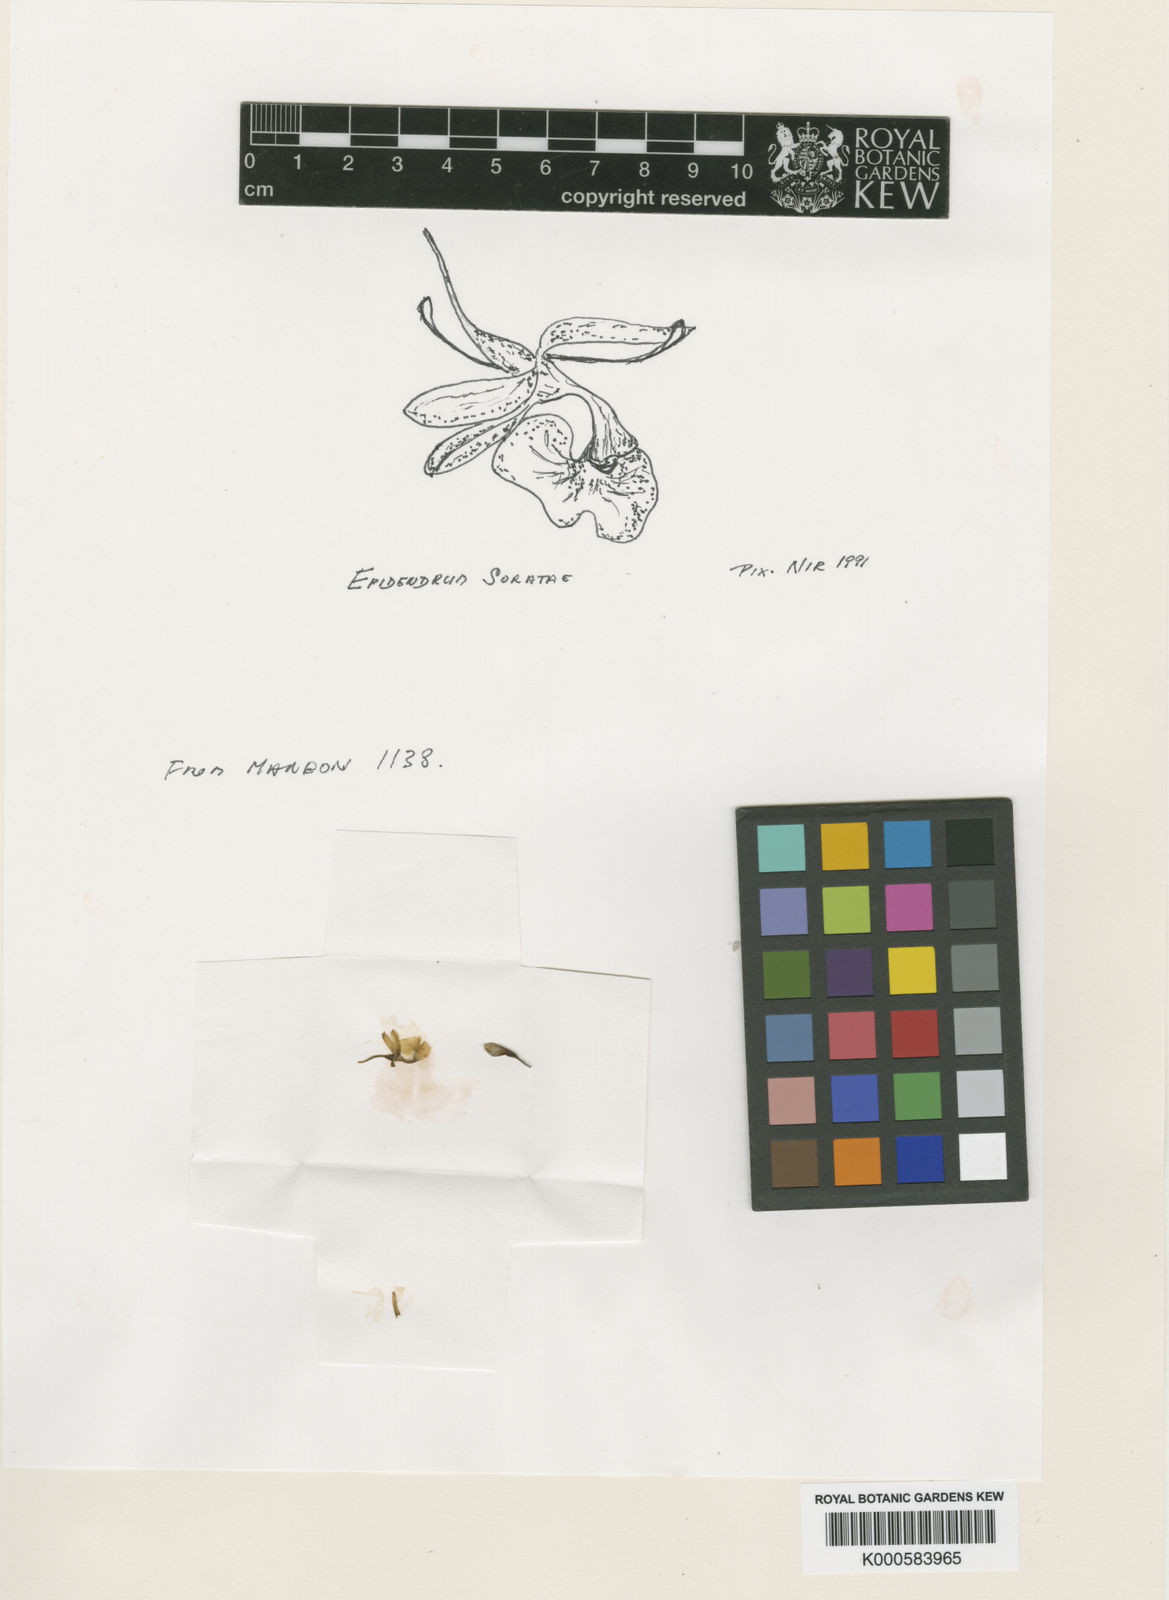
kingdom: Plantae
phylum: Tracheophyta
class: Liliopsida
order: Asparagales
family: Orchidaceae
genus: Epidendrum
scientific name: Epidendrum soratae
